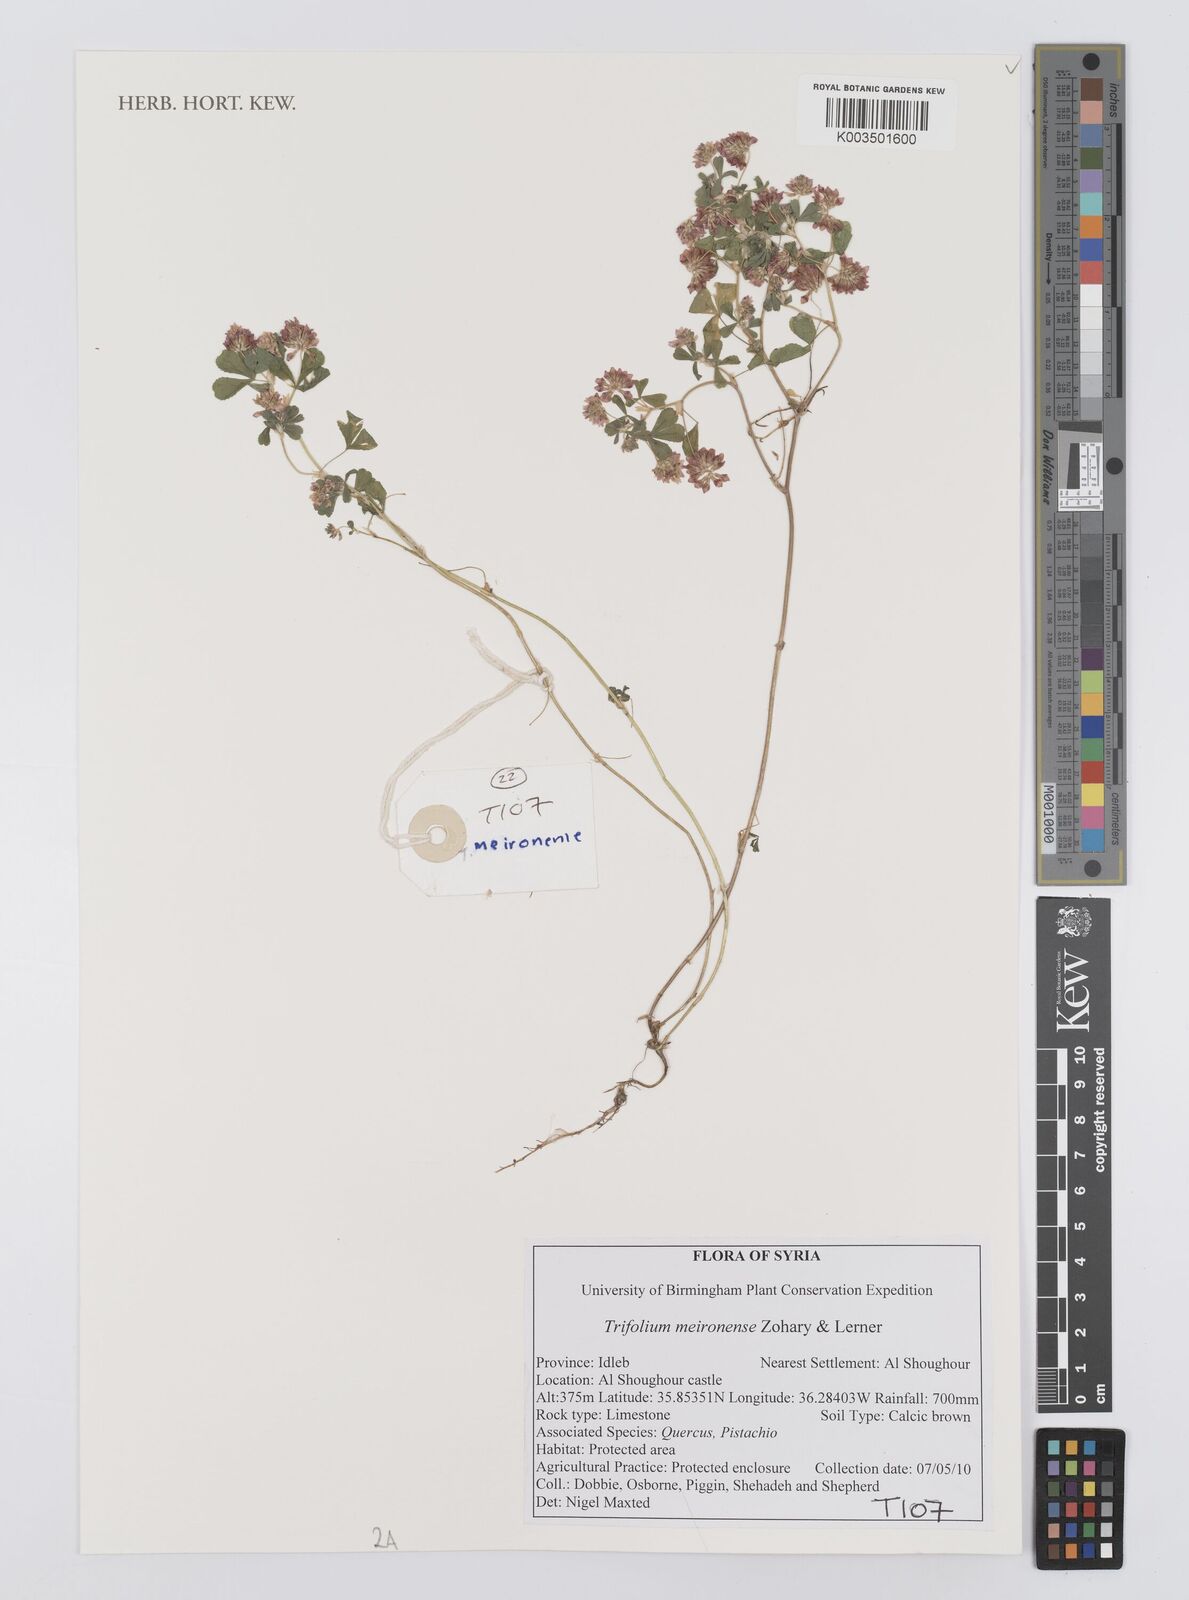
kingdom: Plantae
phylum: Tracheophyta
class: Magnoliopsida
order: Fabales
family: Fabaceae
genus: Trifolium
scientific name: Trifolium meironense
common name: Meiron clover
